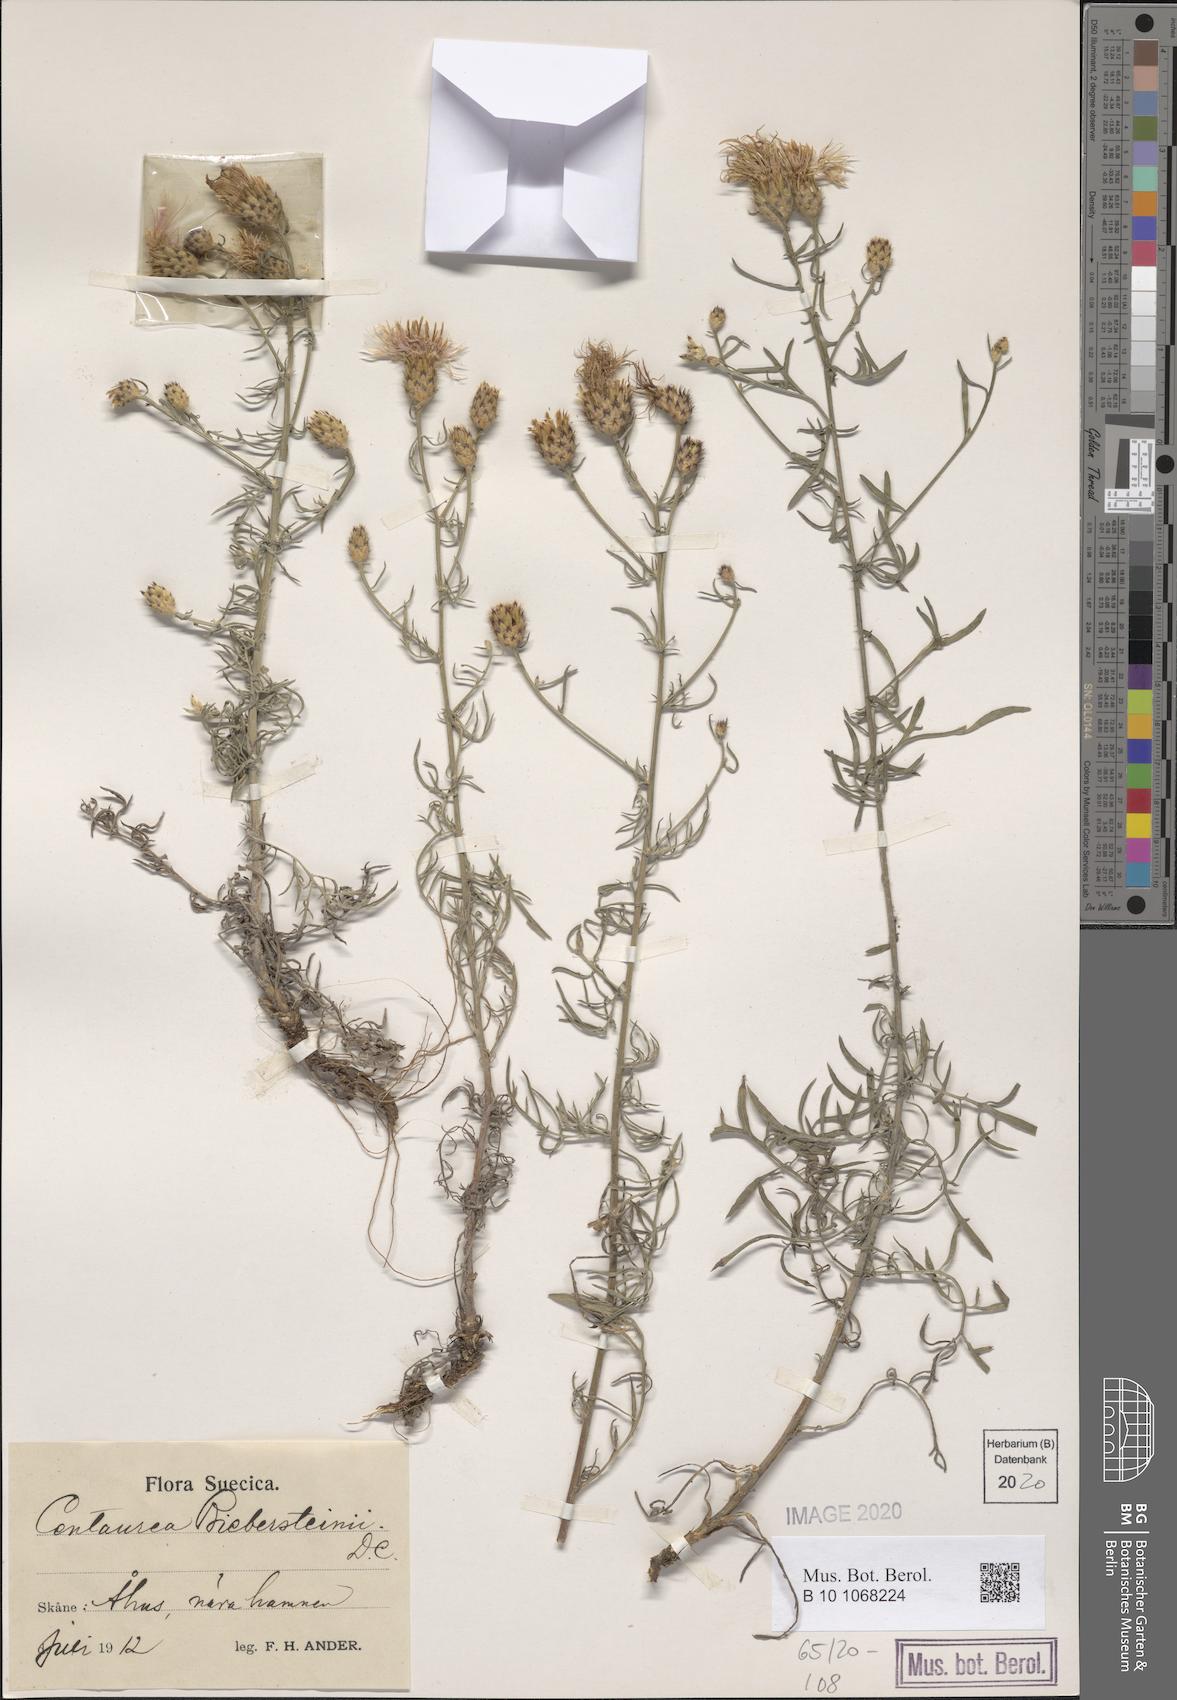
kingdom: Plantae
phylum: Tracheophyta
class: Magnoliopsida
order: Asterales
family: Asteraceae
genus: Centaurea
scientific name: Centaurea stoebe
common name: Spotted knapweed
